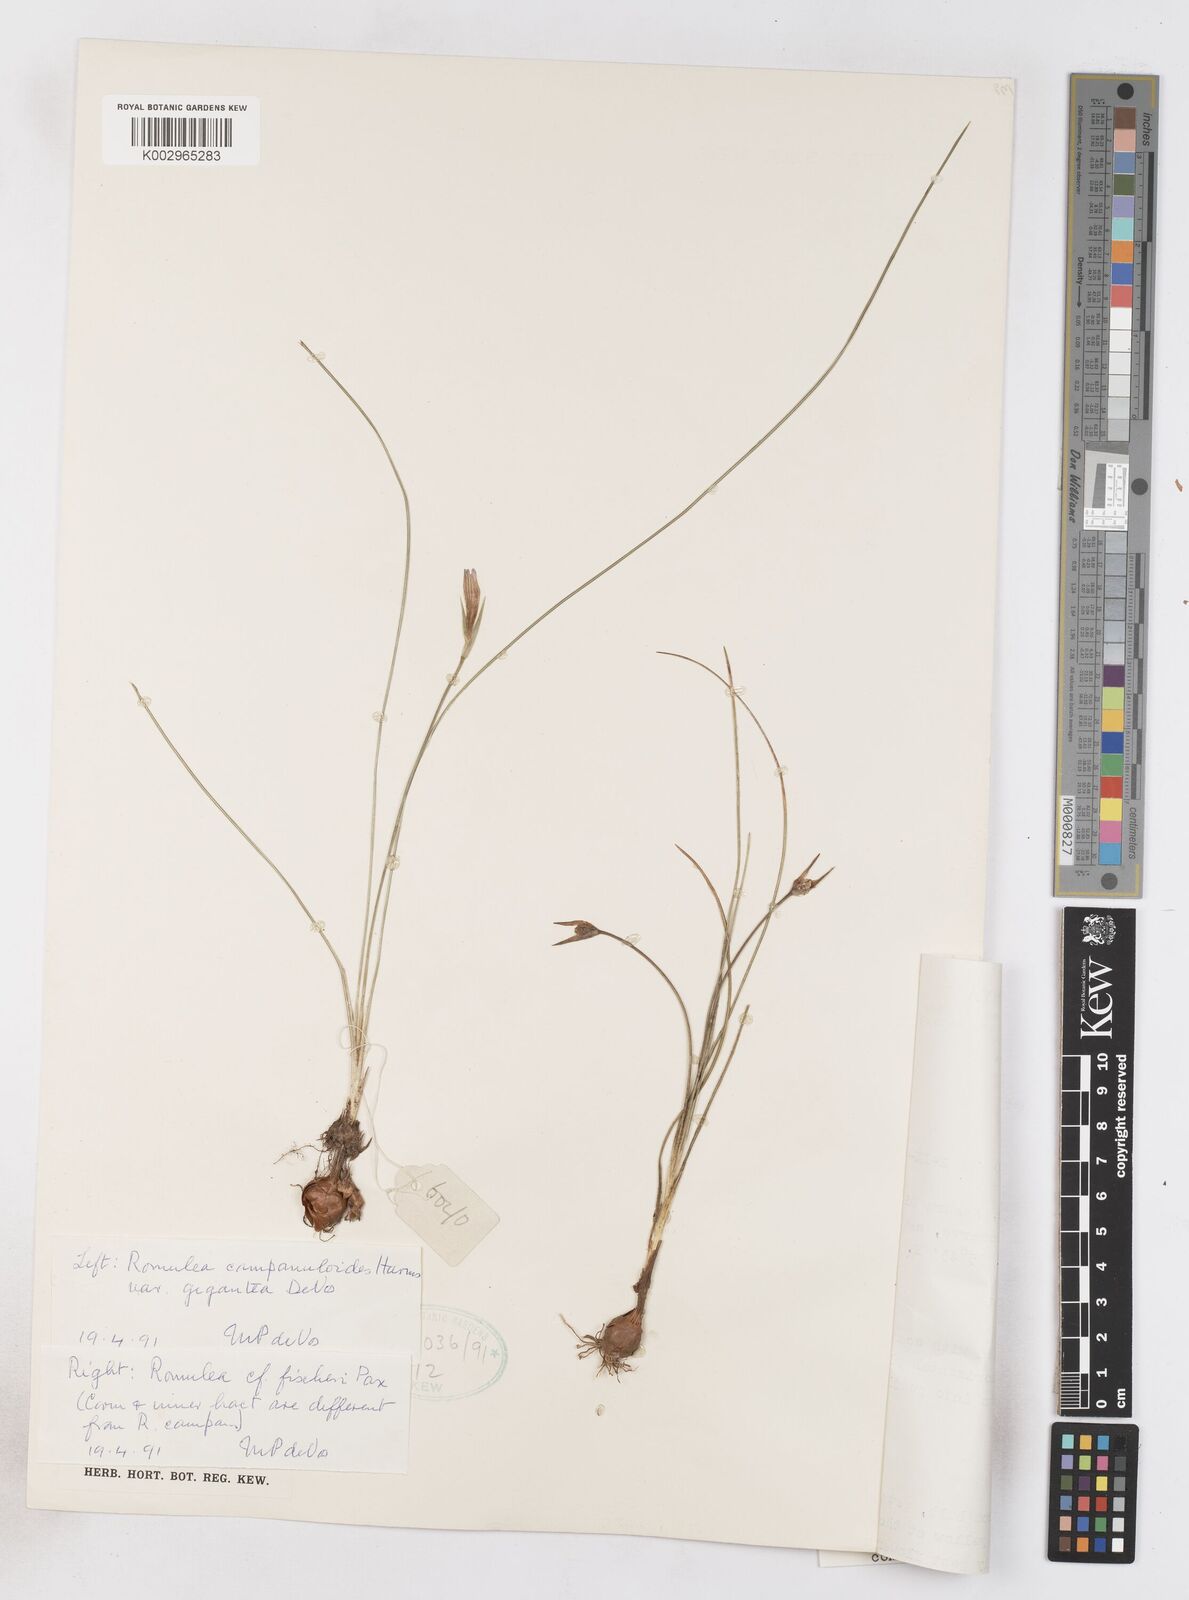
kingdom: Plantae
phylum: Tracheophyta
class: Liliopsida
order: Asparagales
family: Iridaceae
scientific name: Iridaceae
